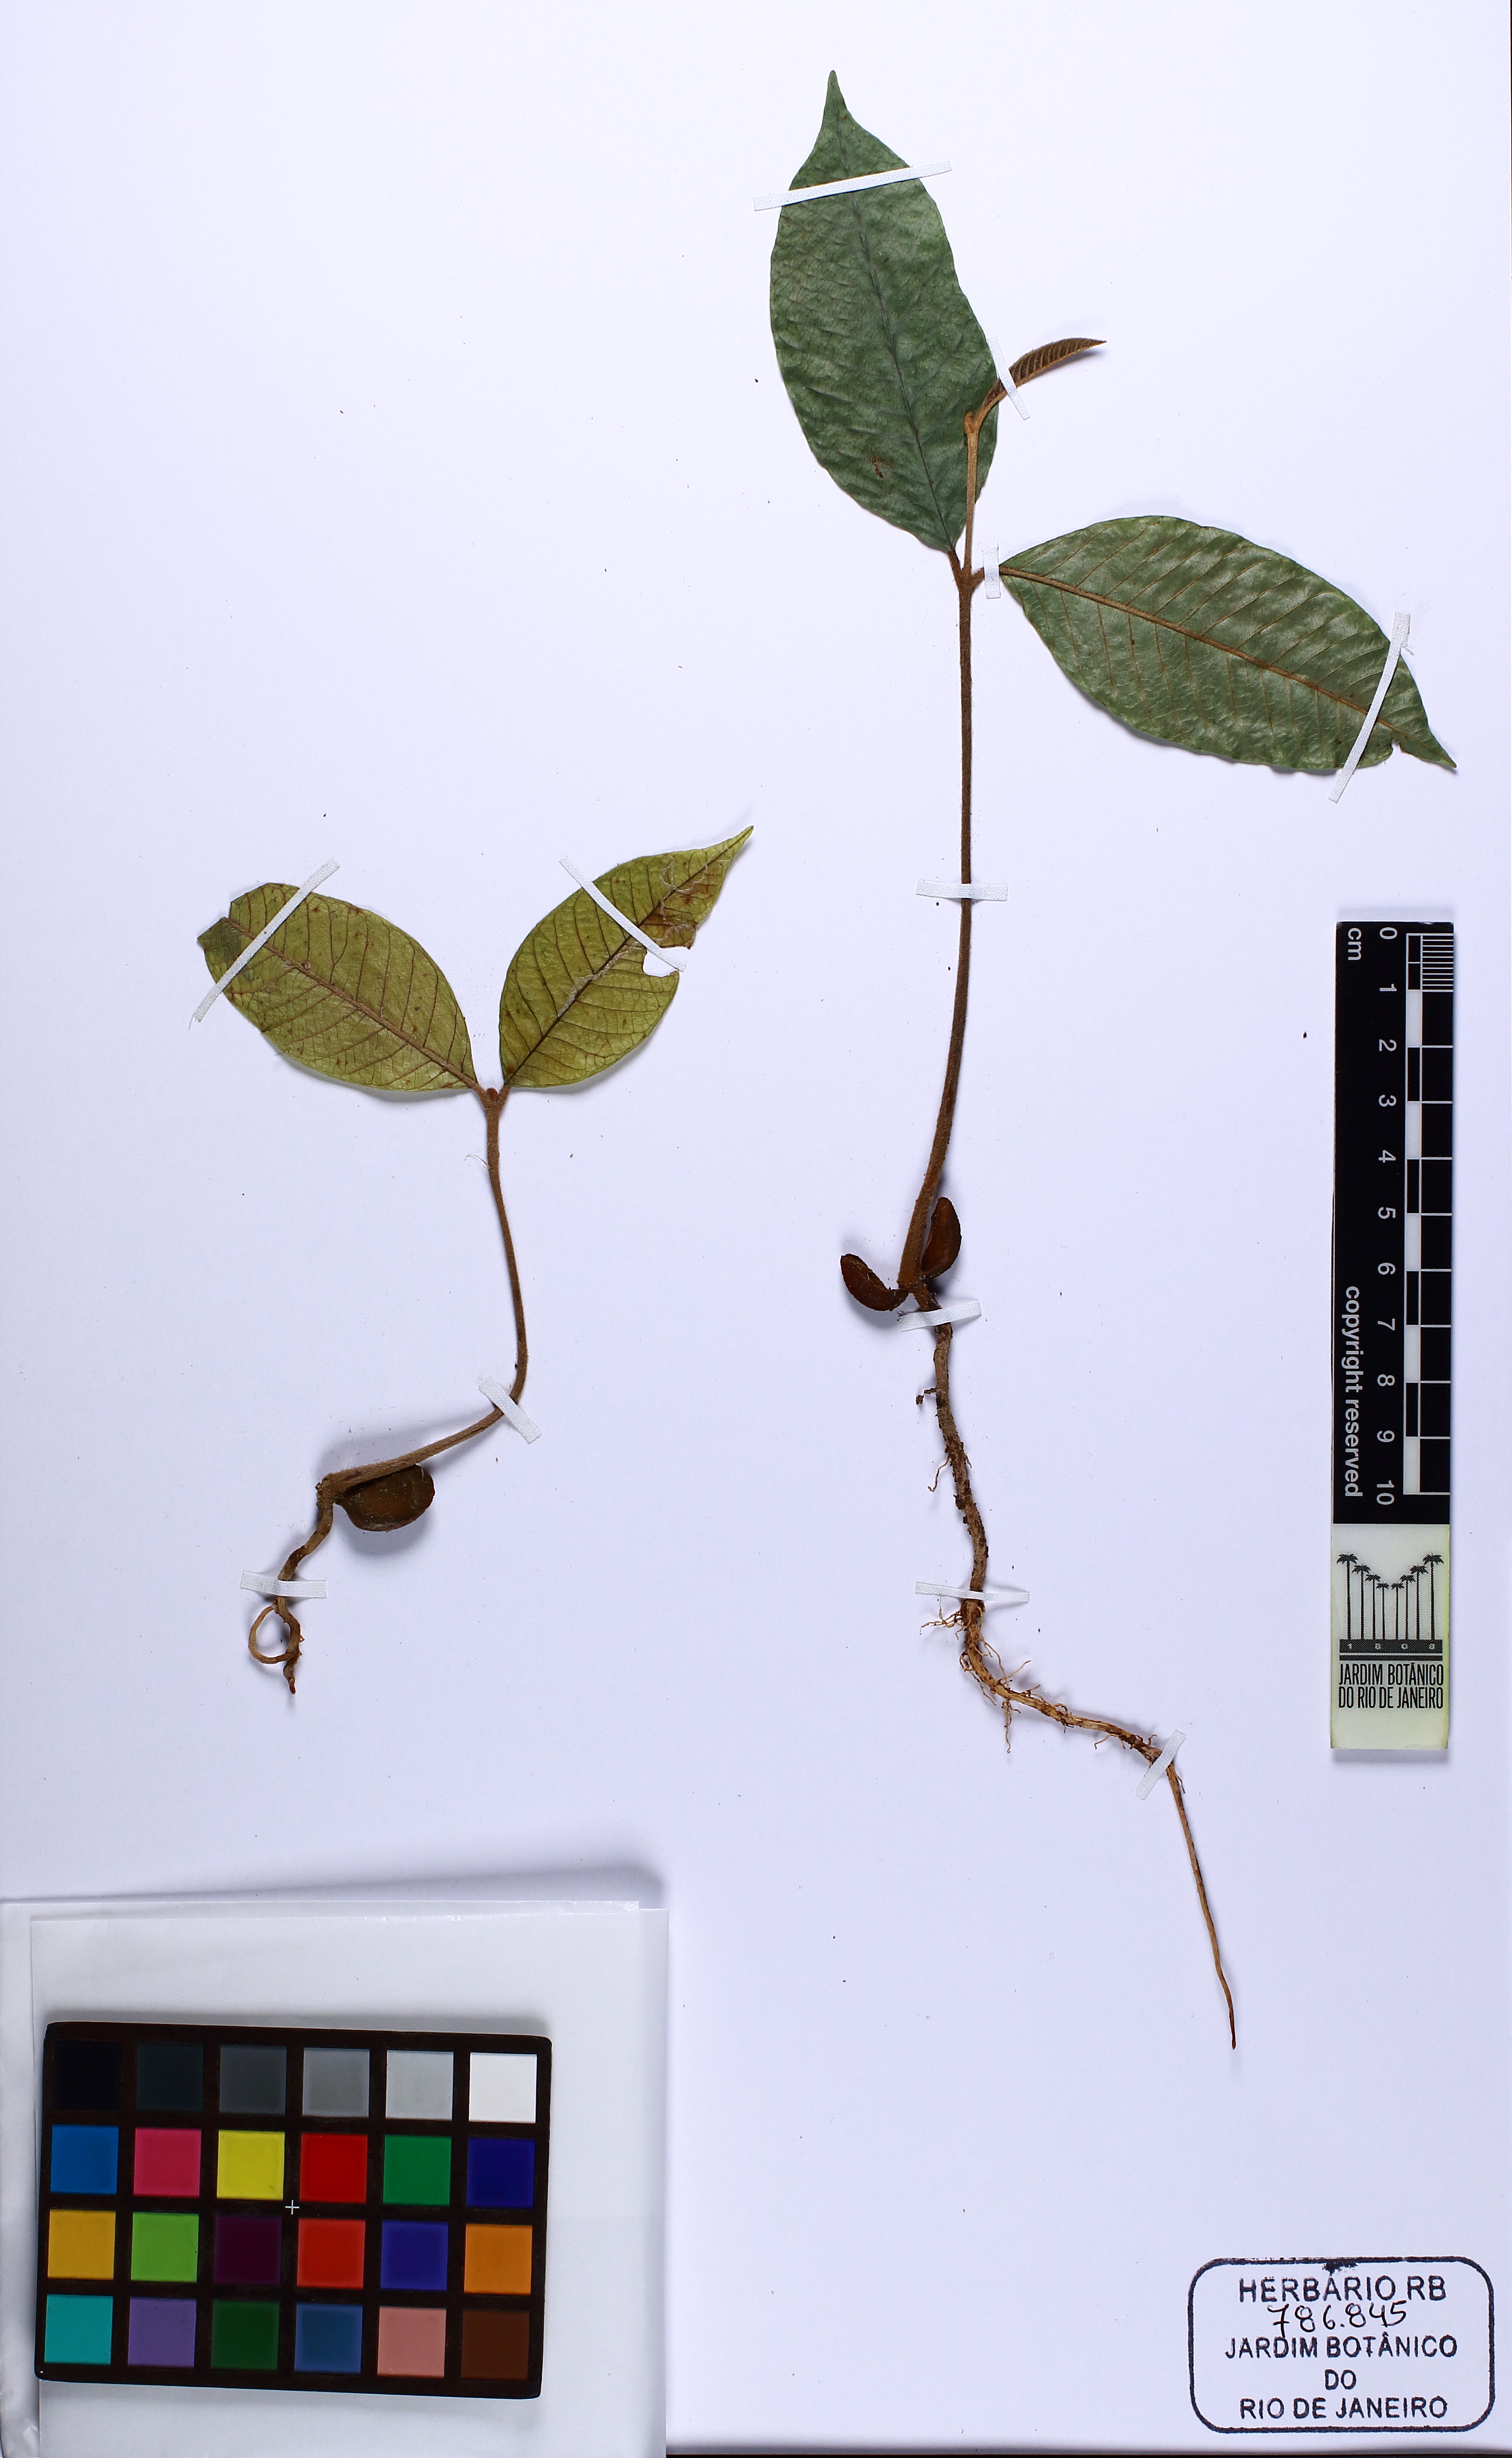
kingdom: Plantae
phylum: Tracheophyta
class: Magnoliopsida
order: Ericales
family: Sapotaceae
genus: Ecclinusa
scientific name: Ecclinusa ramiflora
